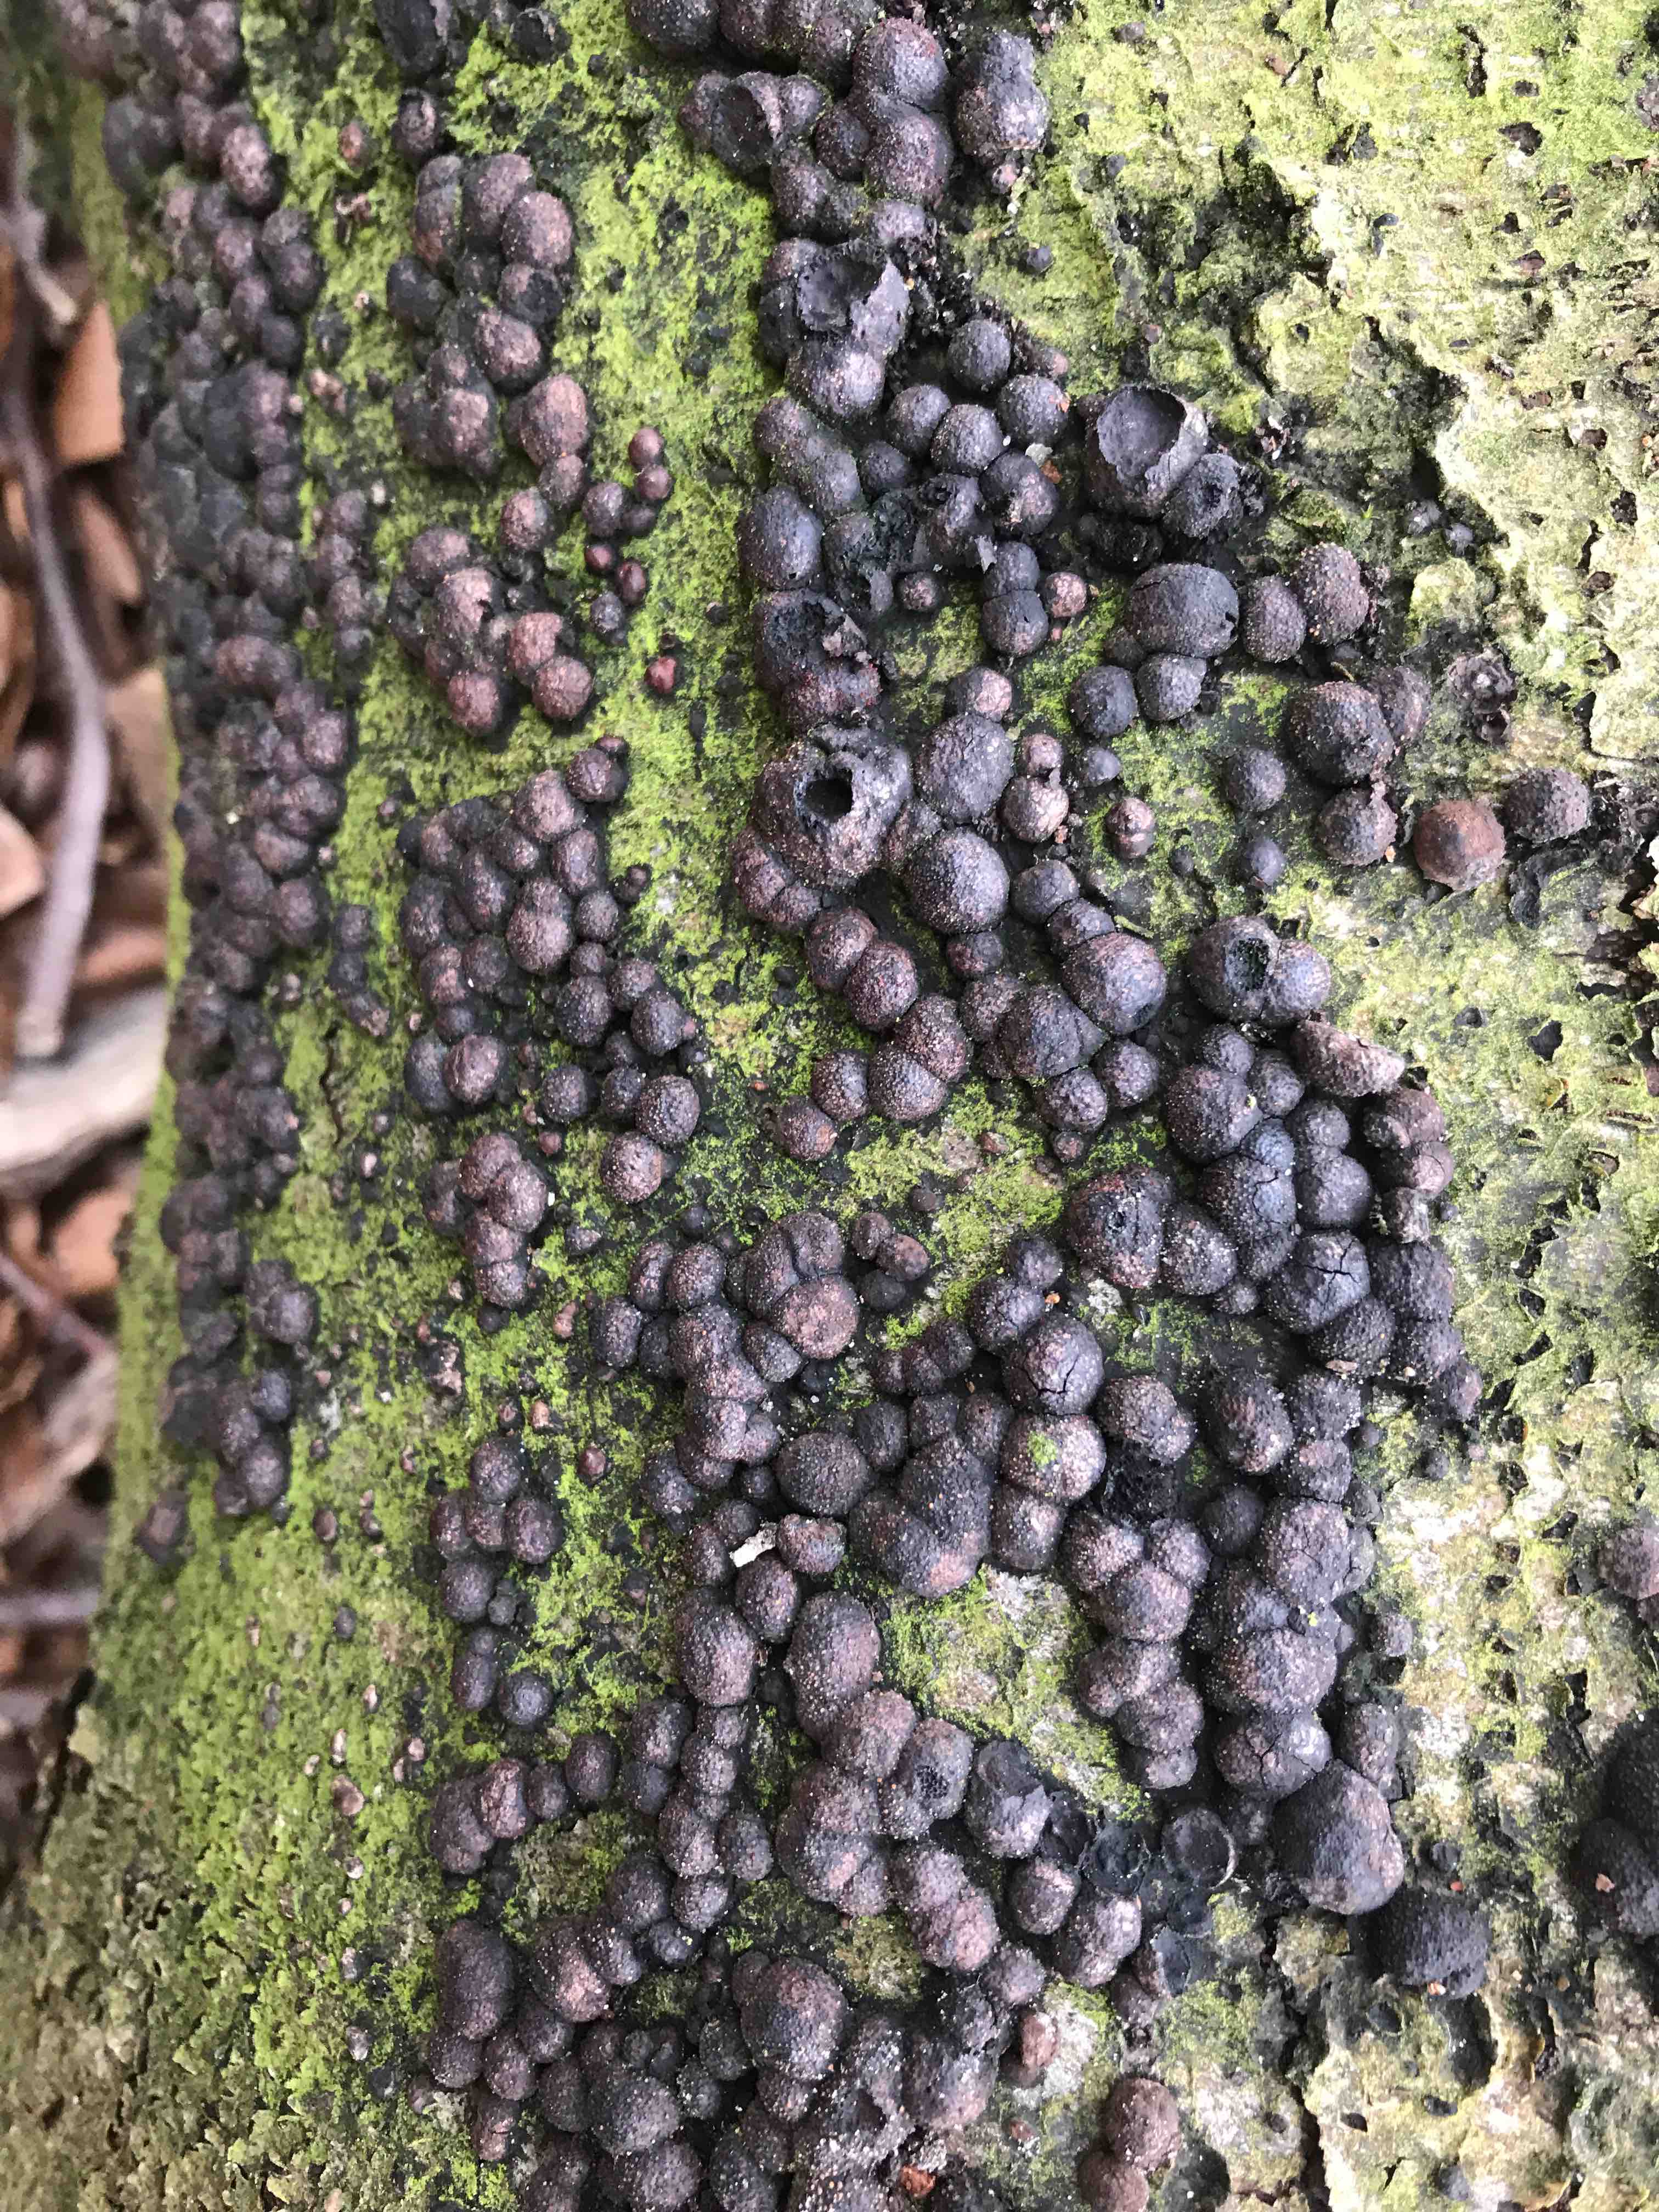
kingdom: Fungi
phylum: Ascomycota
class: Sordariomycetes
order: Xylariales
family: Hypoxylaceae
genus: Hypoxylon
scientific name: Hypoxylon fragiforme
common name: kuljordbær
